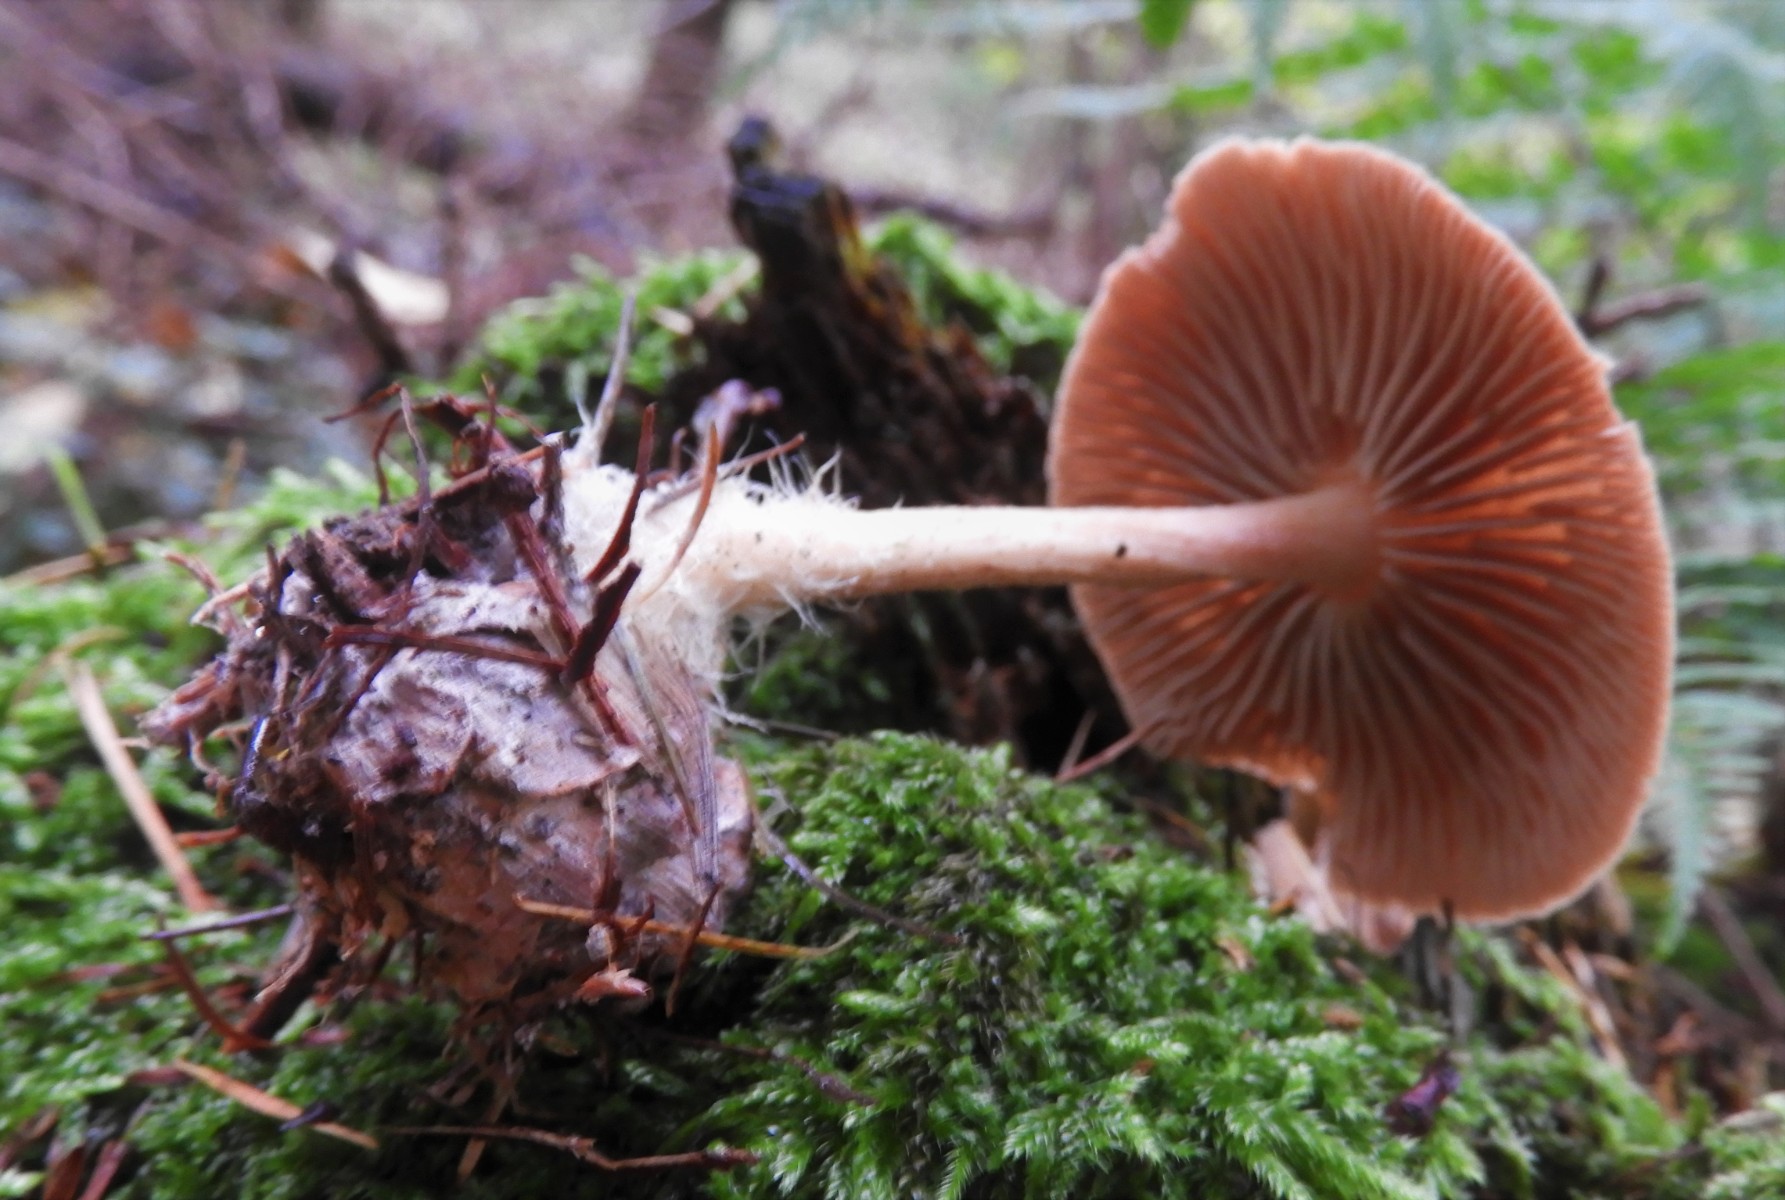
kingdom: Fungi
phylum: Basidiomycota
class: Agaricomycetes
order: Agaricales
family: Omphalotaceae
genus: Collybiopsis
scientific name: Collybiopsis peronata
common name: bestøvlet fladhat
